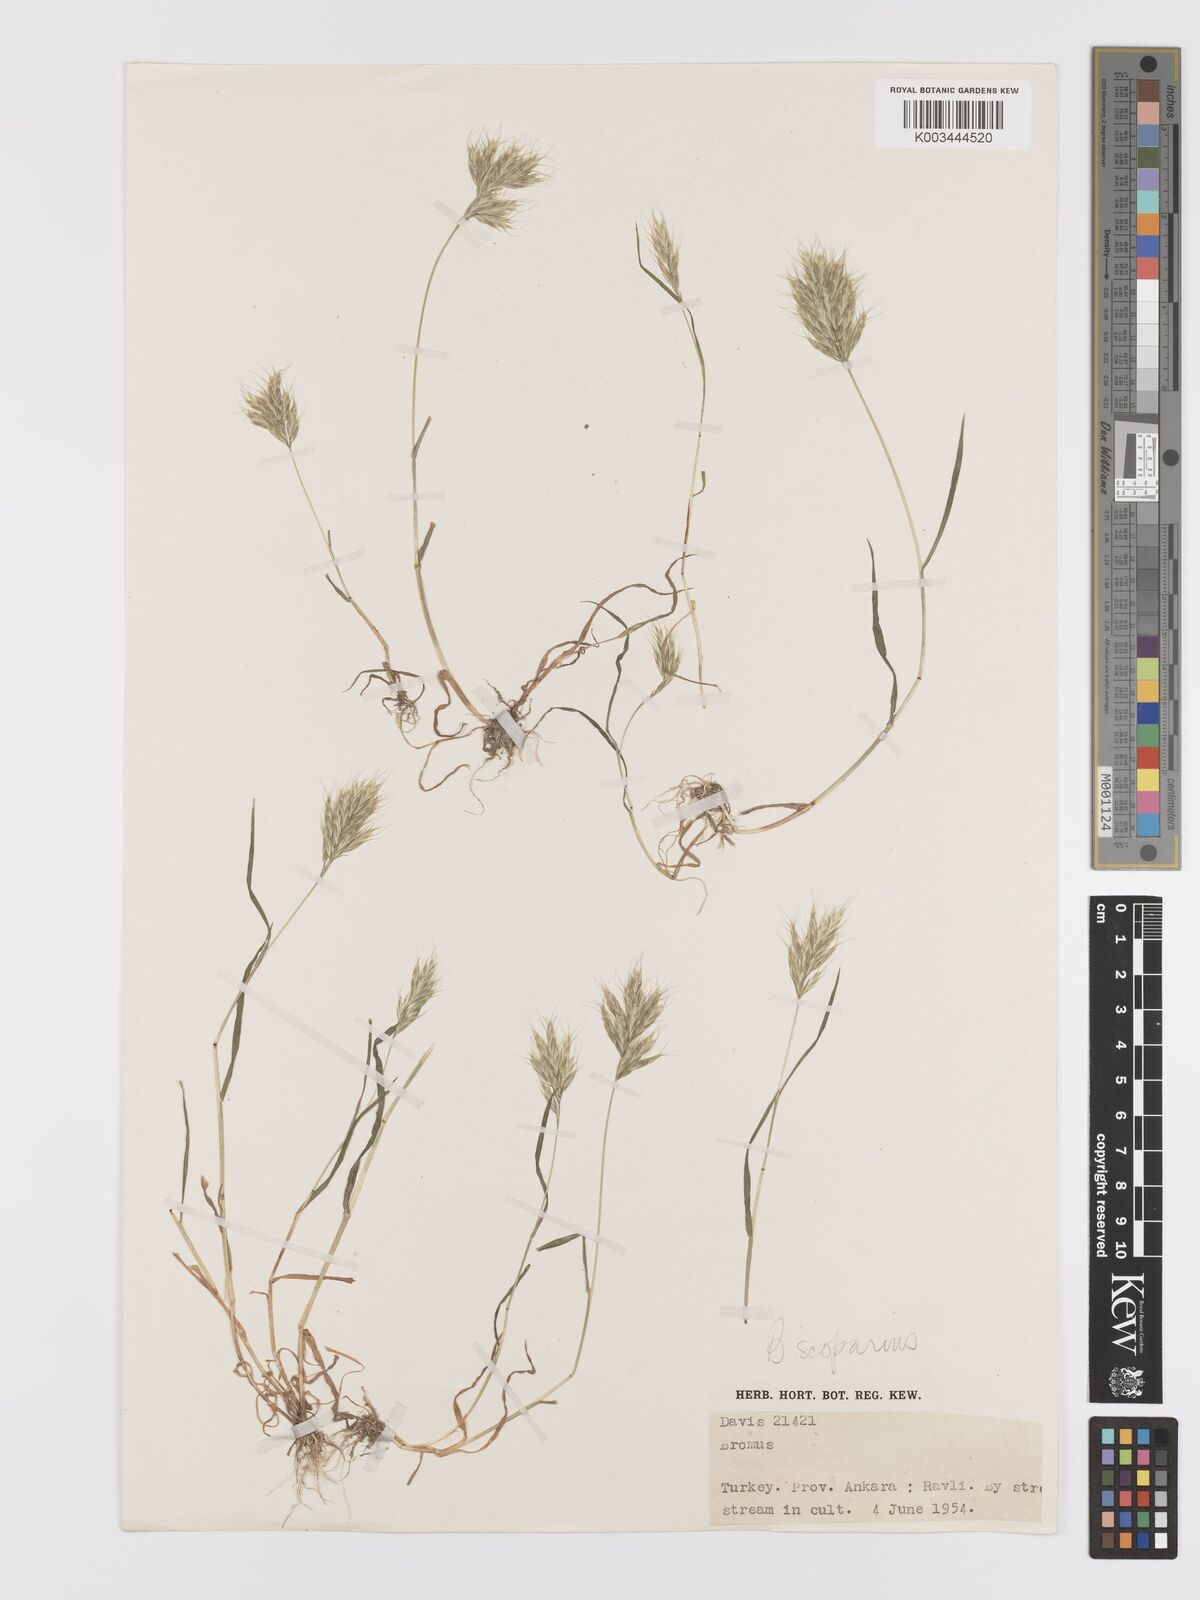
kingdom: Plantae
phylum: Tracheophyta
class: Liliopsida
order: Poales
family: Poaceae
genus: Bromus
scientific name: Bromus scoparius
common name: Broom brome
